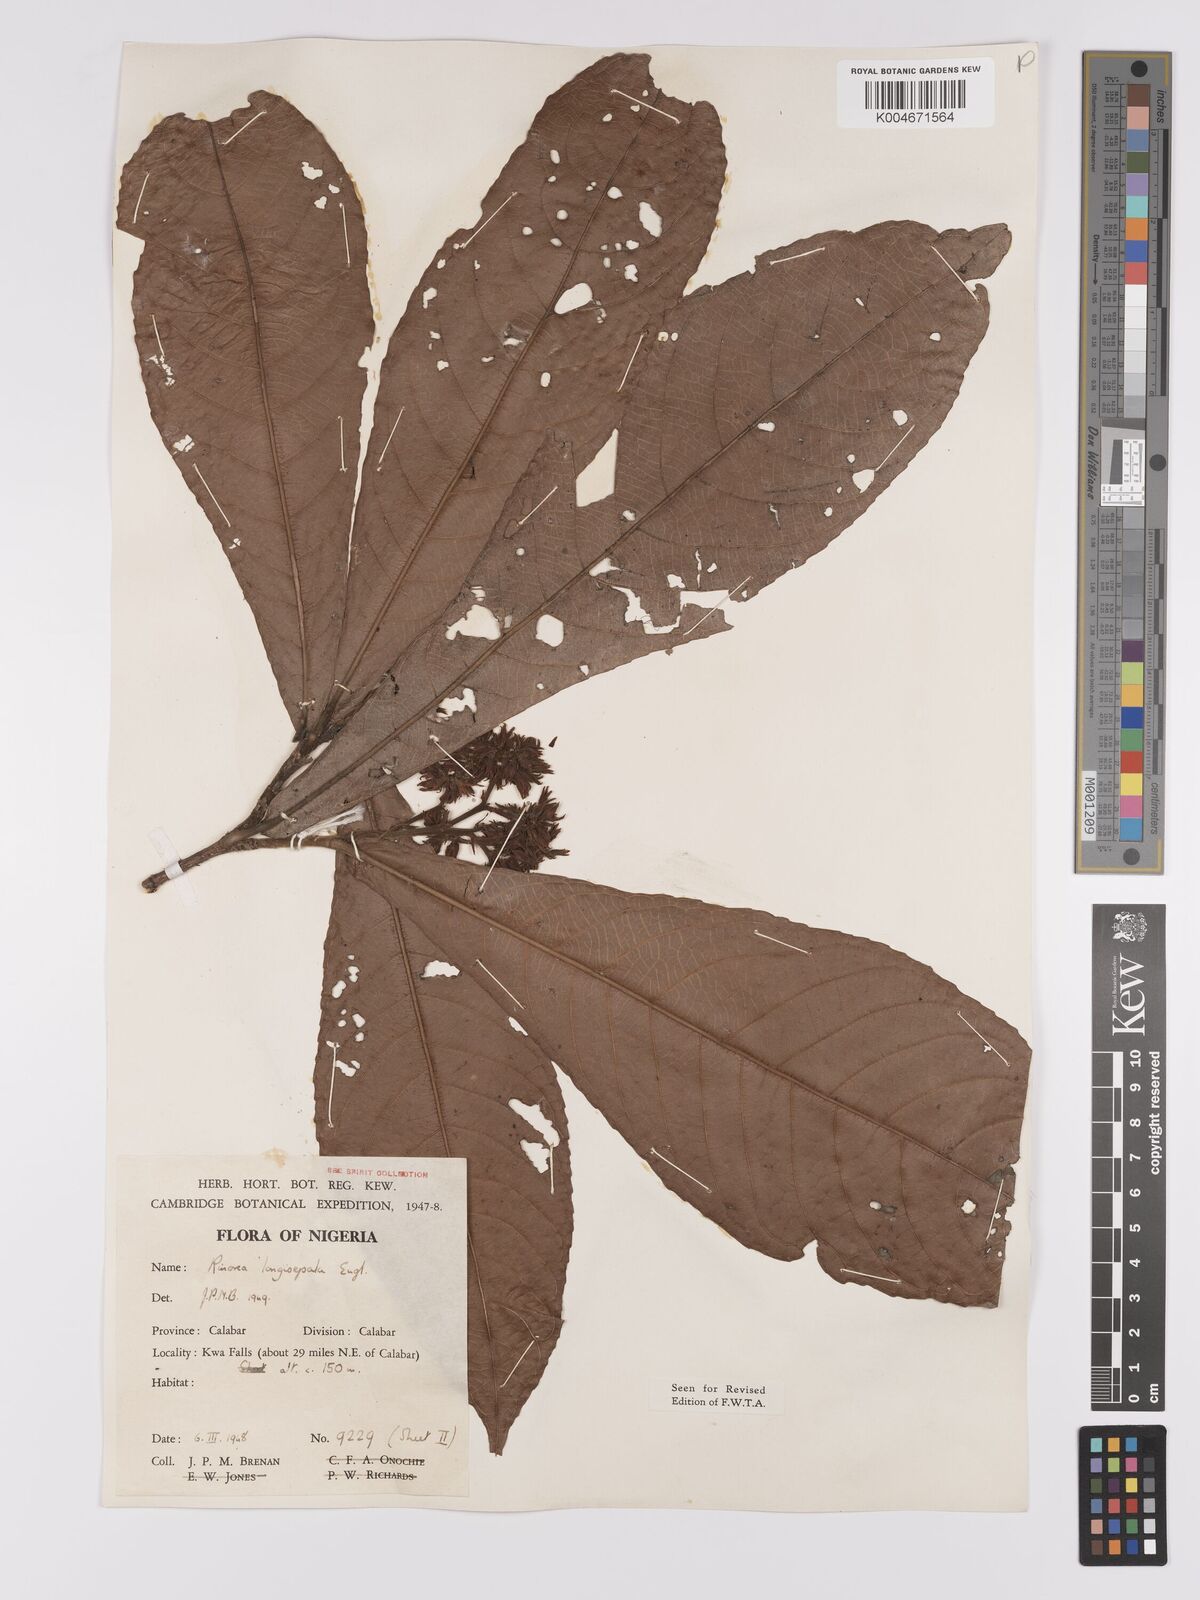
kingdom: Plantae
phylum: Tracheophyta
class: Magnoliopsida
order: Malpighiales
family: Violaceae
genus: Rinorea
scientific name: Rinorea longisepala
